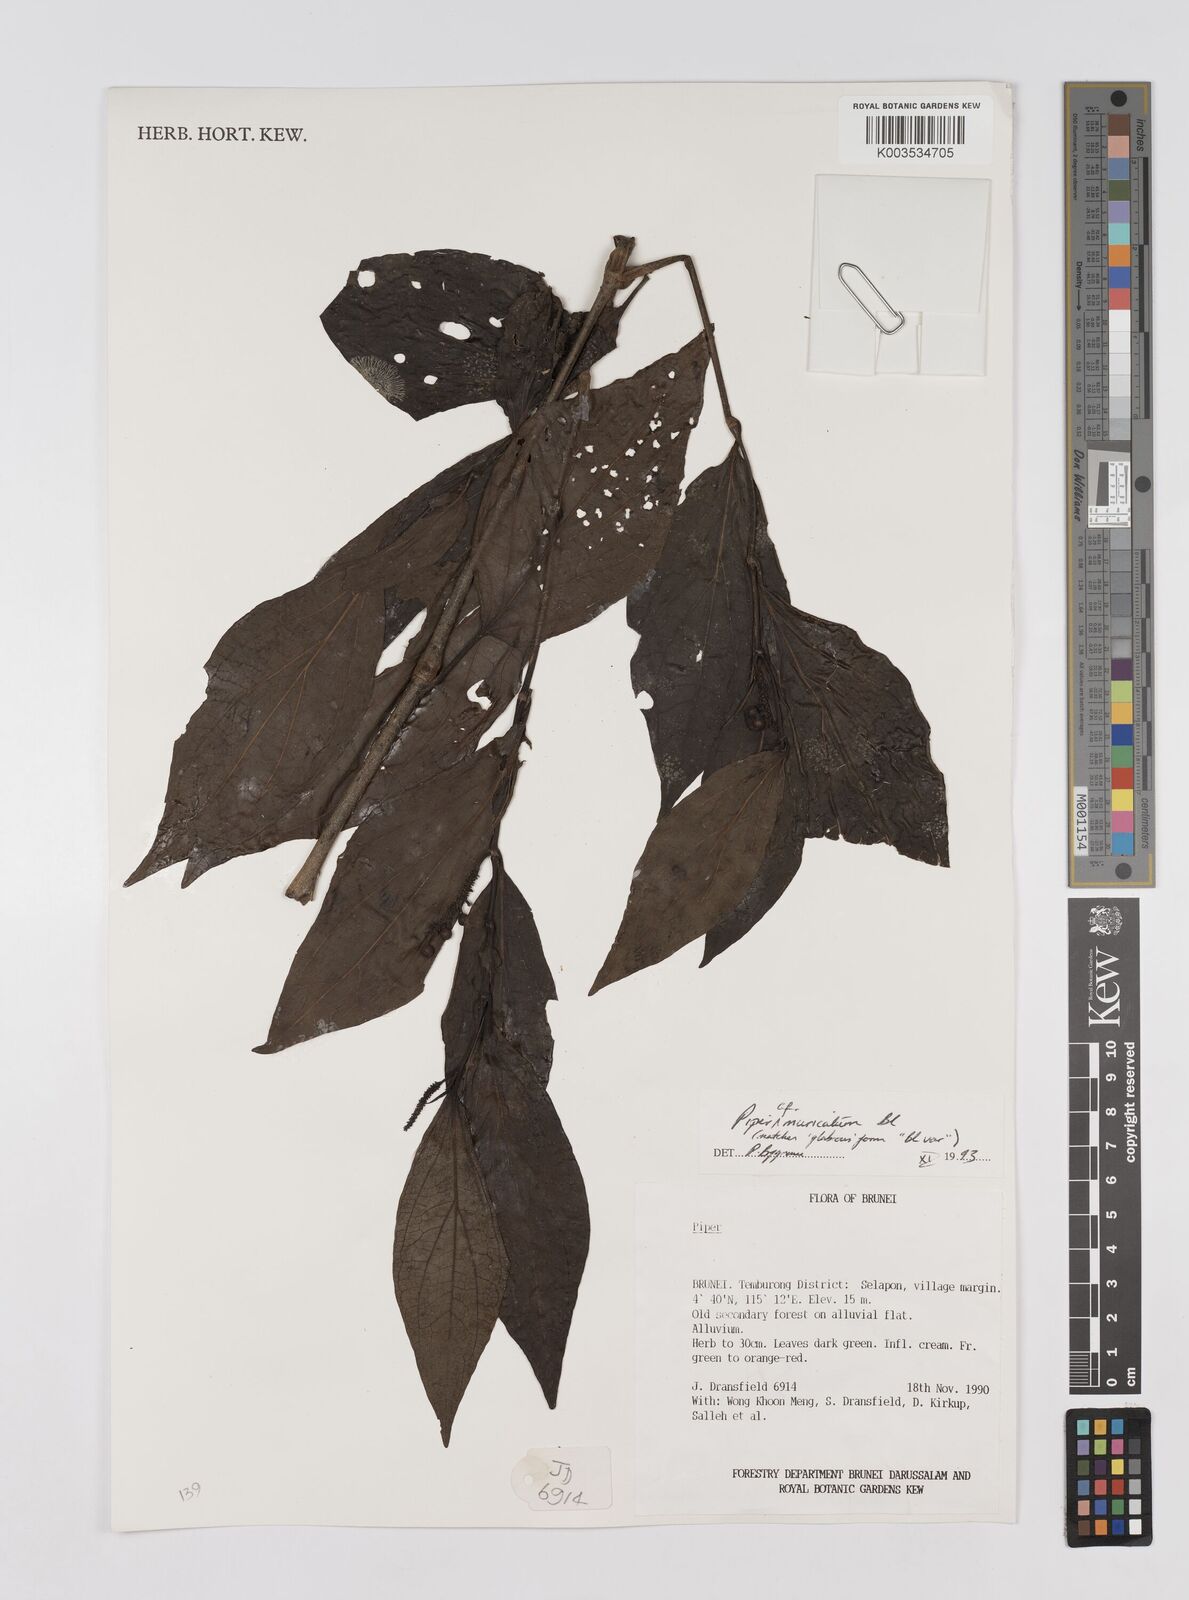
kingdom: Plantae
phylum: Tracheophyta
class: Magnoliopsida
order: Piperales
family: Piperaceae
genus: Piper
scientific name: Piper muricatum
